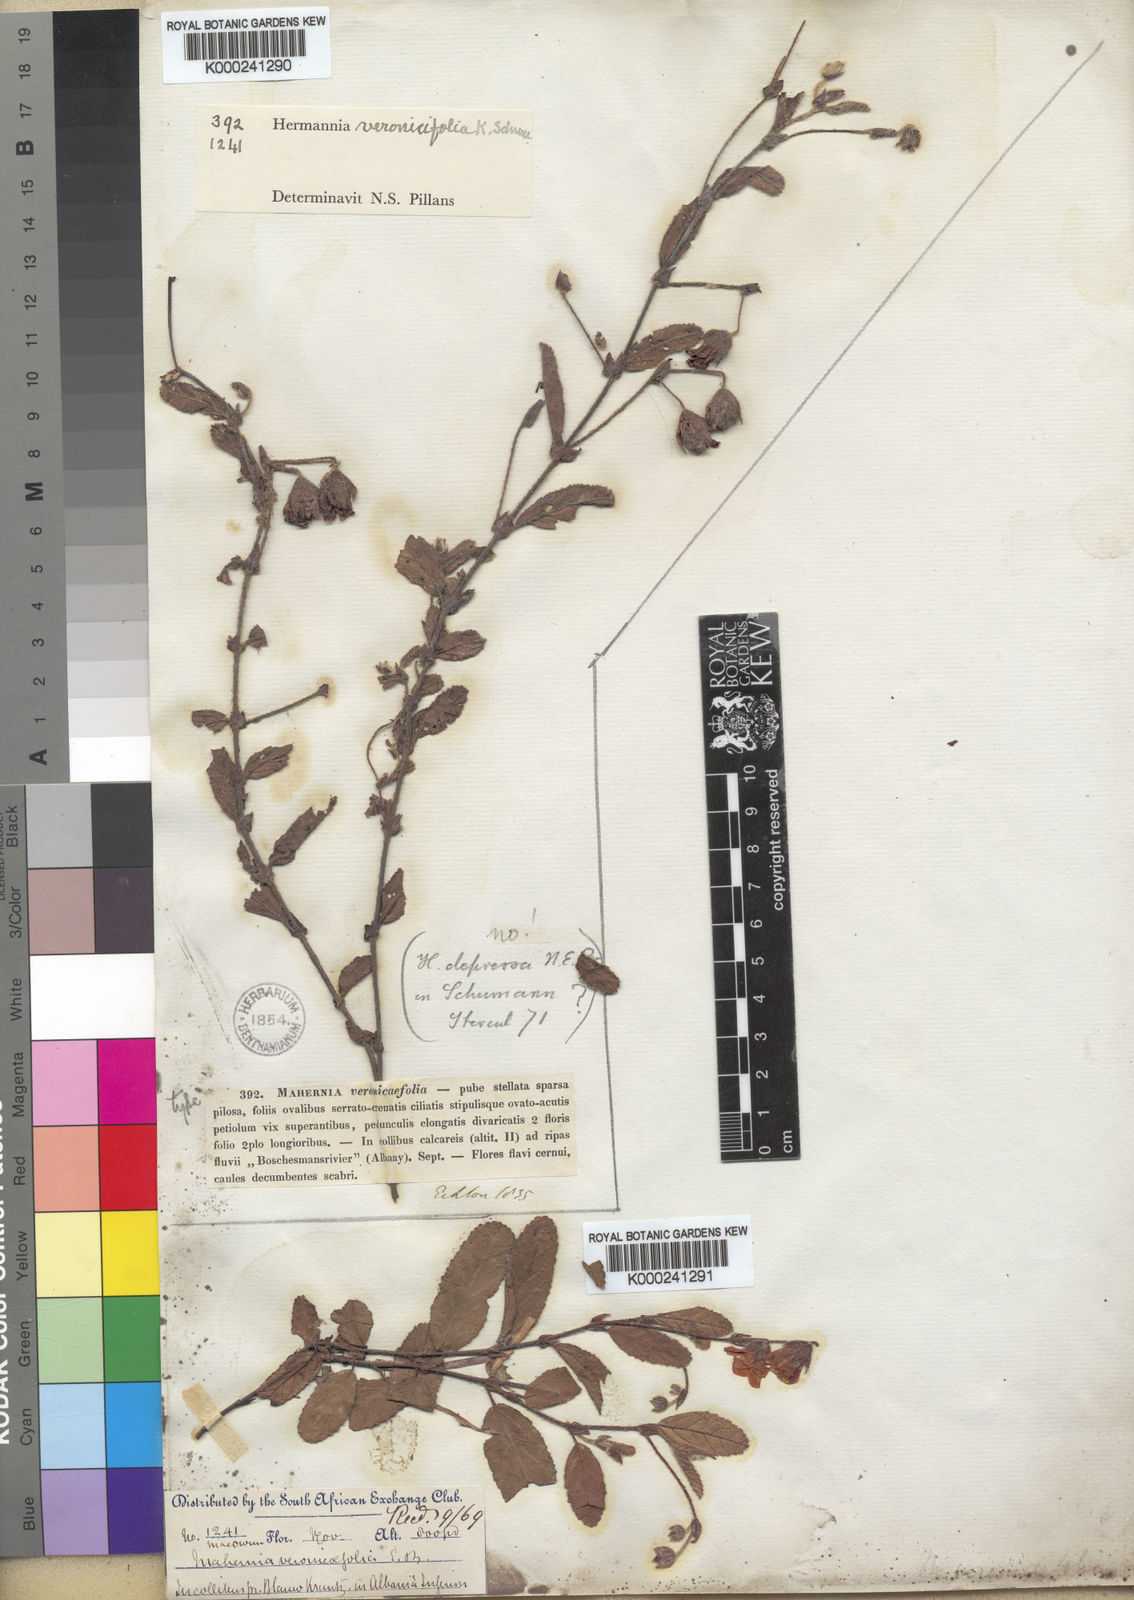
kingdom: Plantae
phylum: Tracheophyta
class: Magnoliopsida
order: Malvales
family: Malvaceae
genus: Hermannia
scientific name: Hermannia veronicifolia
